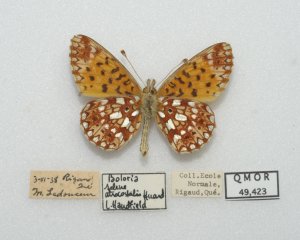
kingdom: Animalia
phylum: Arthropoda
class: Insecta
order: Lepidoptera
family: Nymphalidae
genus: Boloria
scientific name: Boloria selene
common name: Silver-bordered Fritillary
